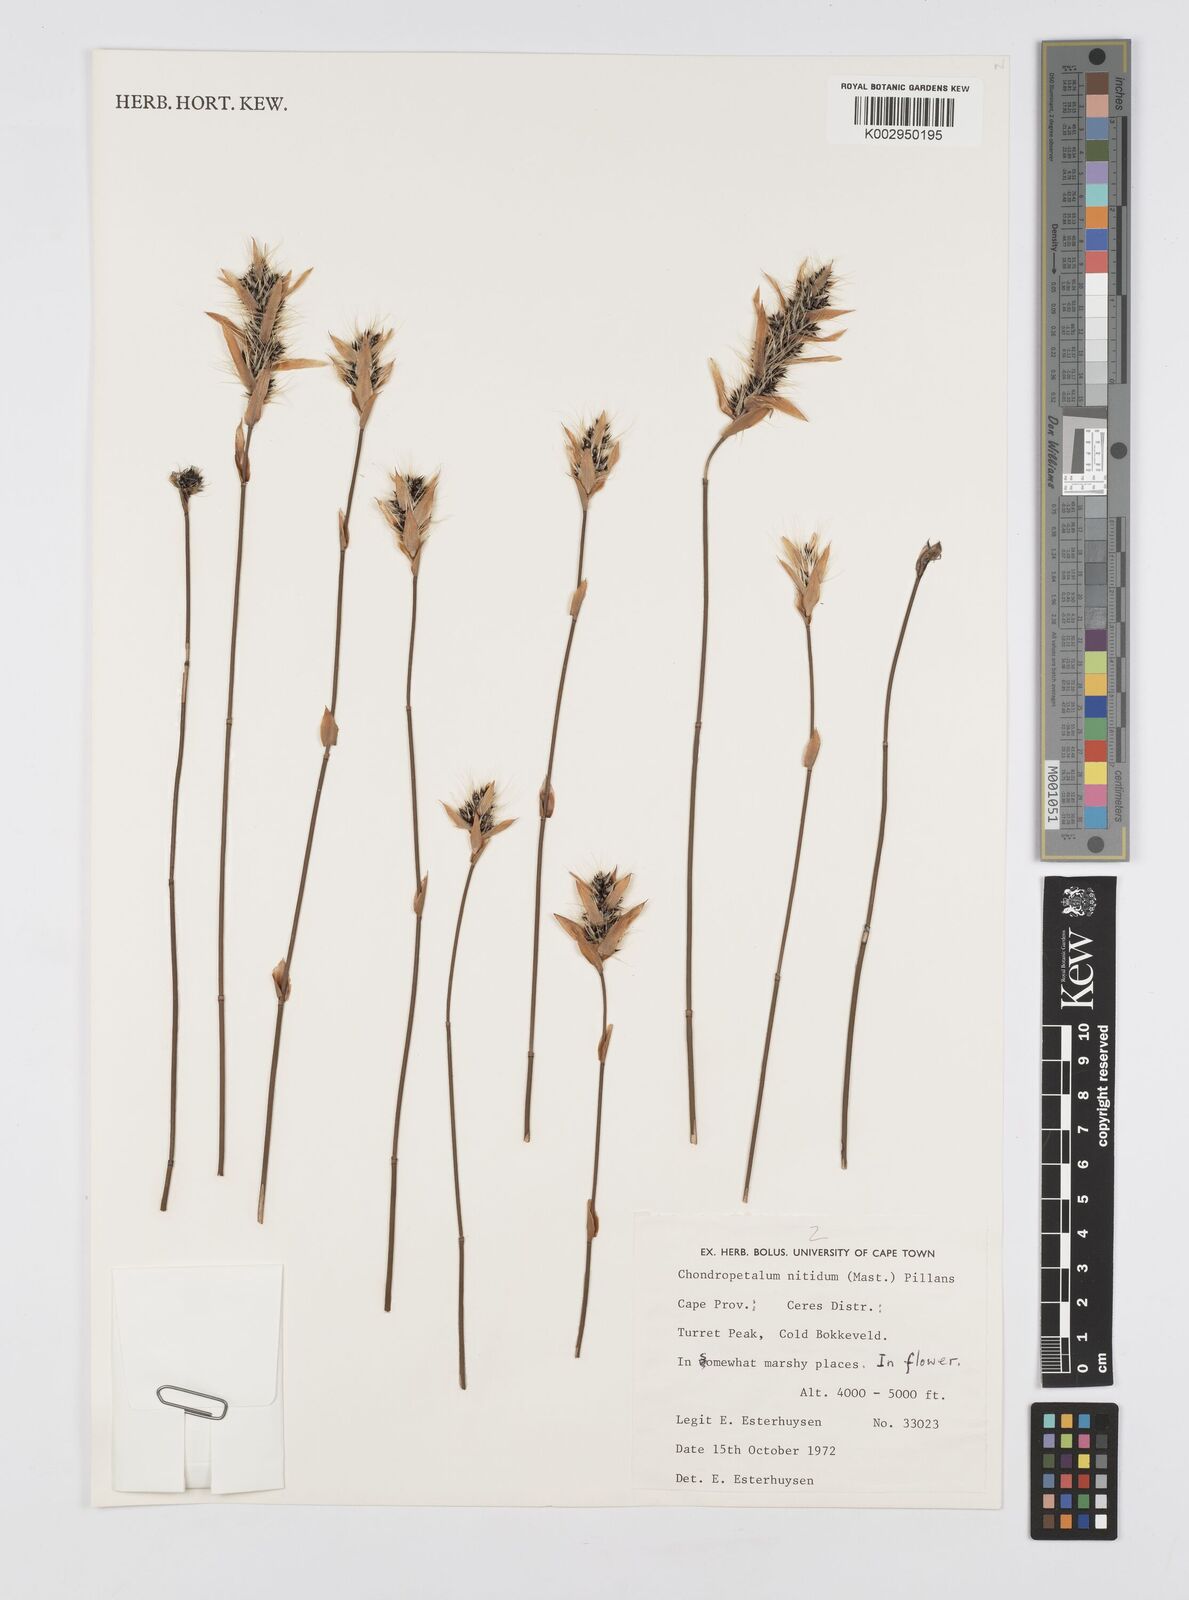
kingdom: Plantae
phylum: Tracheophyta
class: Liliopsida
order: Poales
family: Restionaceae
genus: Askidiosperma
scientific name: Askidiosperma nitidum
